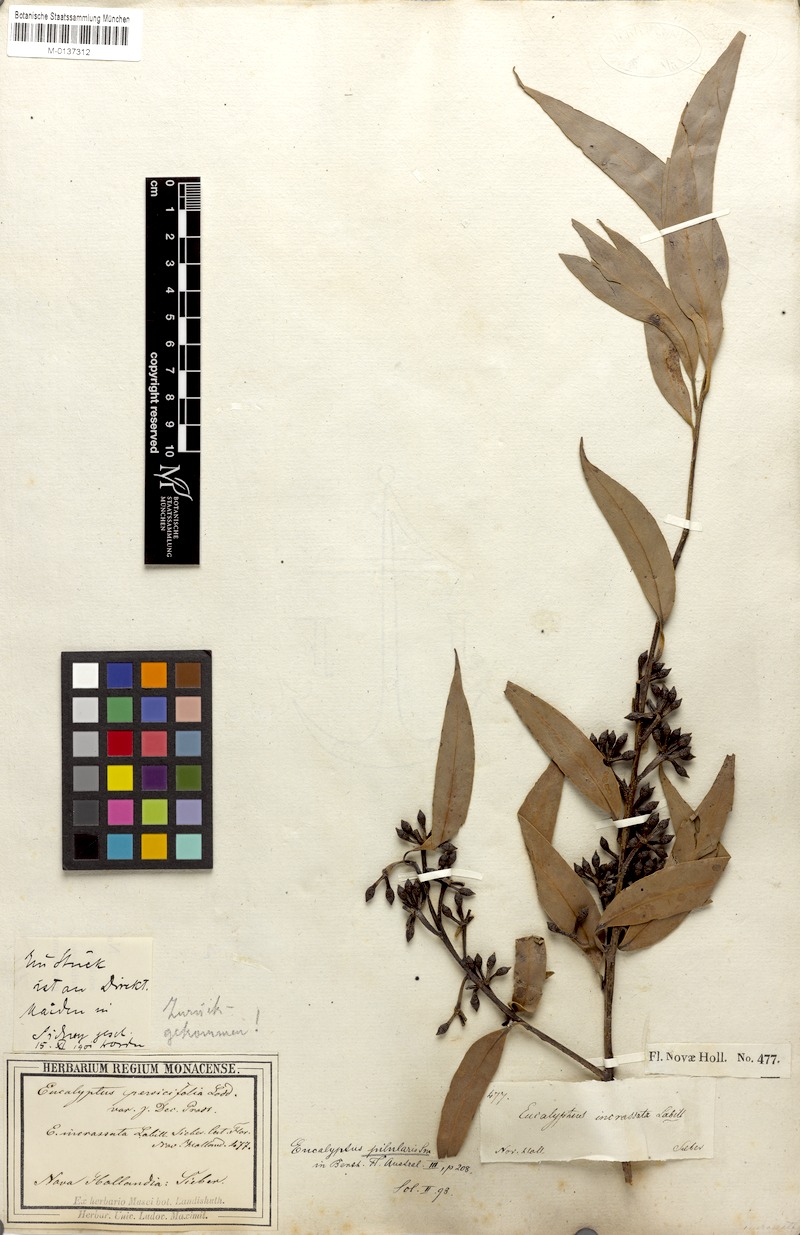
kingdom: Plantae
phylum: Tracheophyta
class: Magnoliopsida
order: Myrtales
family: Myrtaceae
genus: Eucalyptus
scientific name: Eucalyptus incrassata
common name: Ridge-fruit mallee
